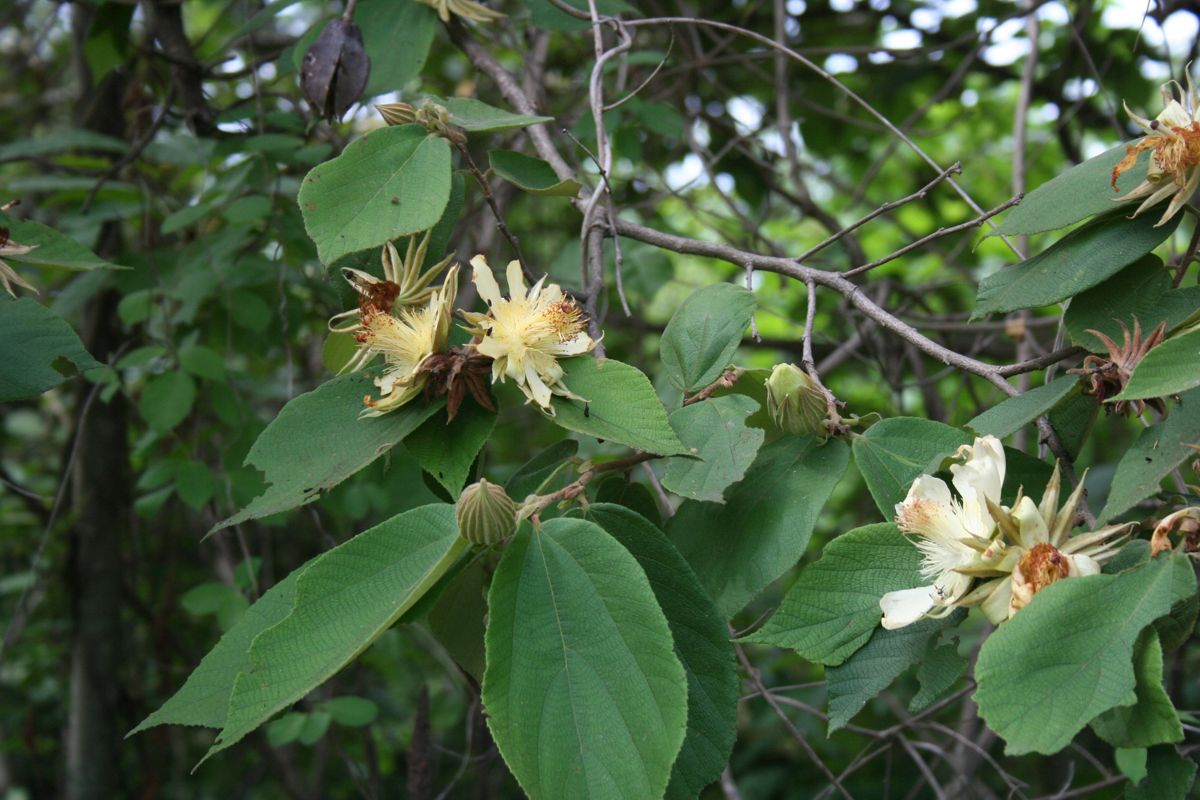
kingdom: Plantae
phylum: Tracheophyta
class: Magnoliopsida
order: Malvales
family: Malvaceae
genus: Luehea
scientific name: Luehea candida
